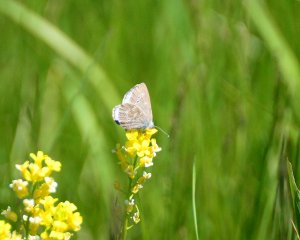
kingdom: Animalia
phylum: Arthropoda
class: Insecta
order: Lepidoptera
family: Lycaenidae
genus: Glaucopsyche
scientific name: Glaucopsyche lygdamus
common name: Silvery Blue
